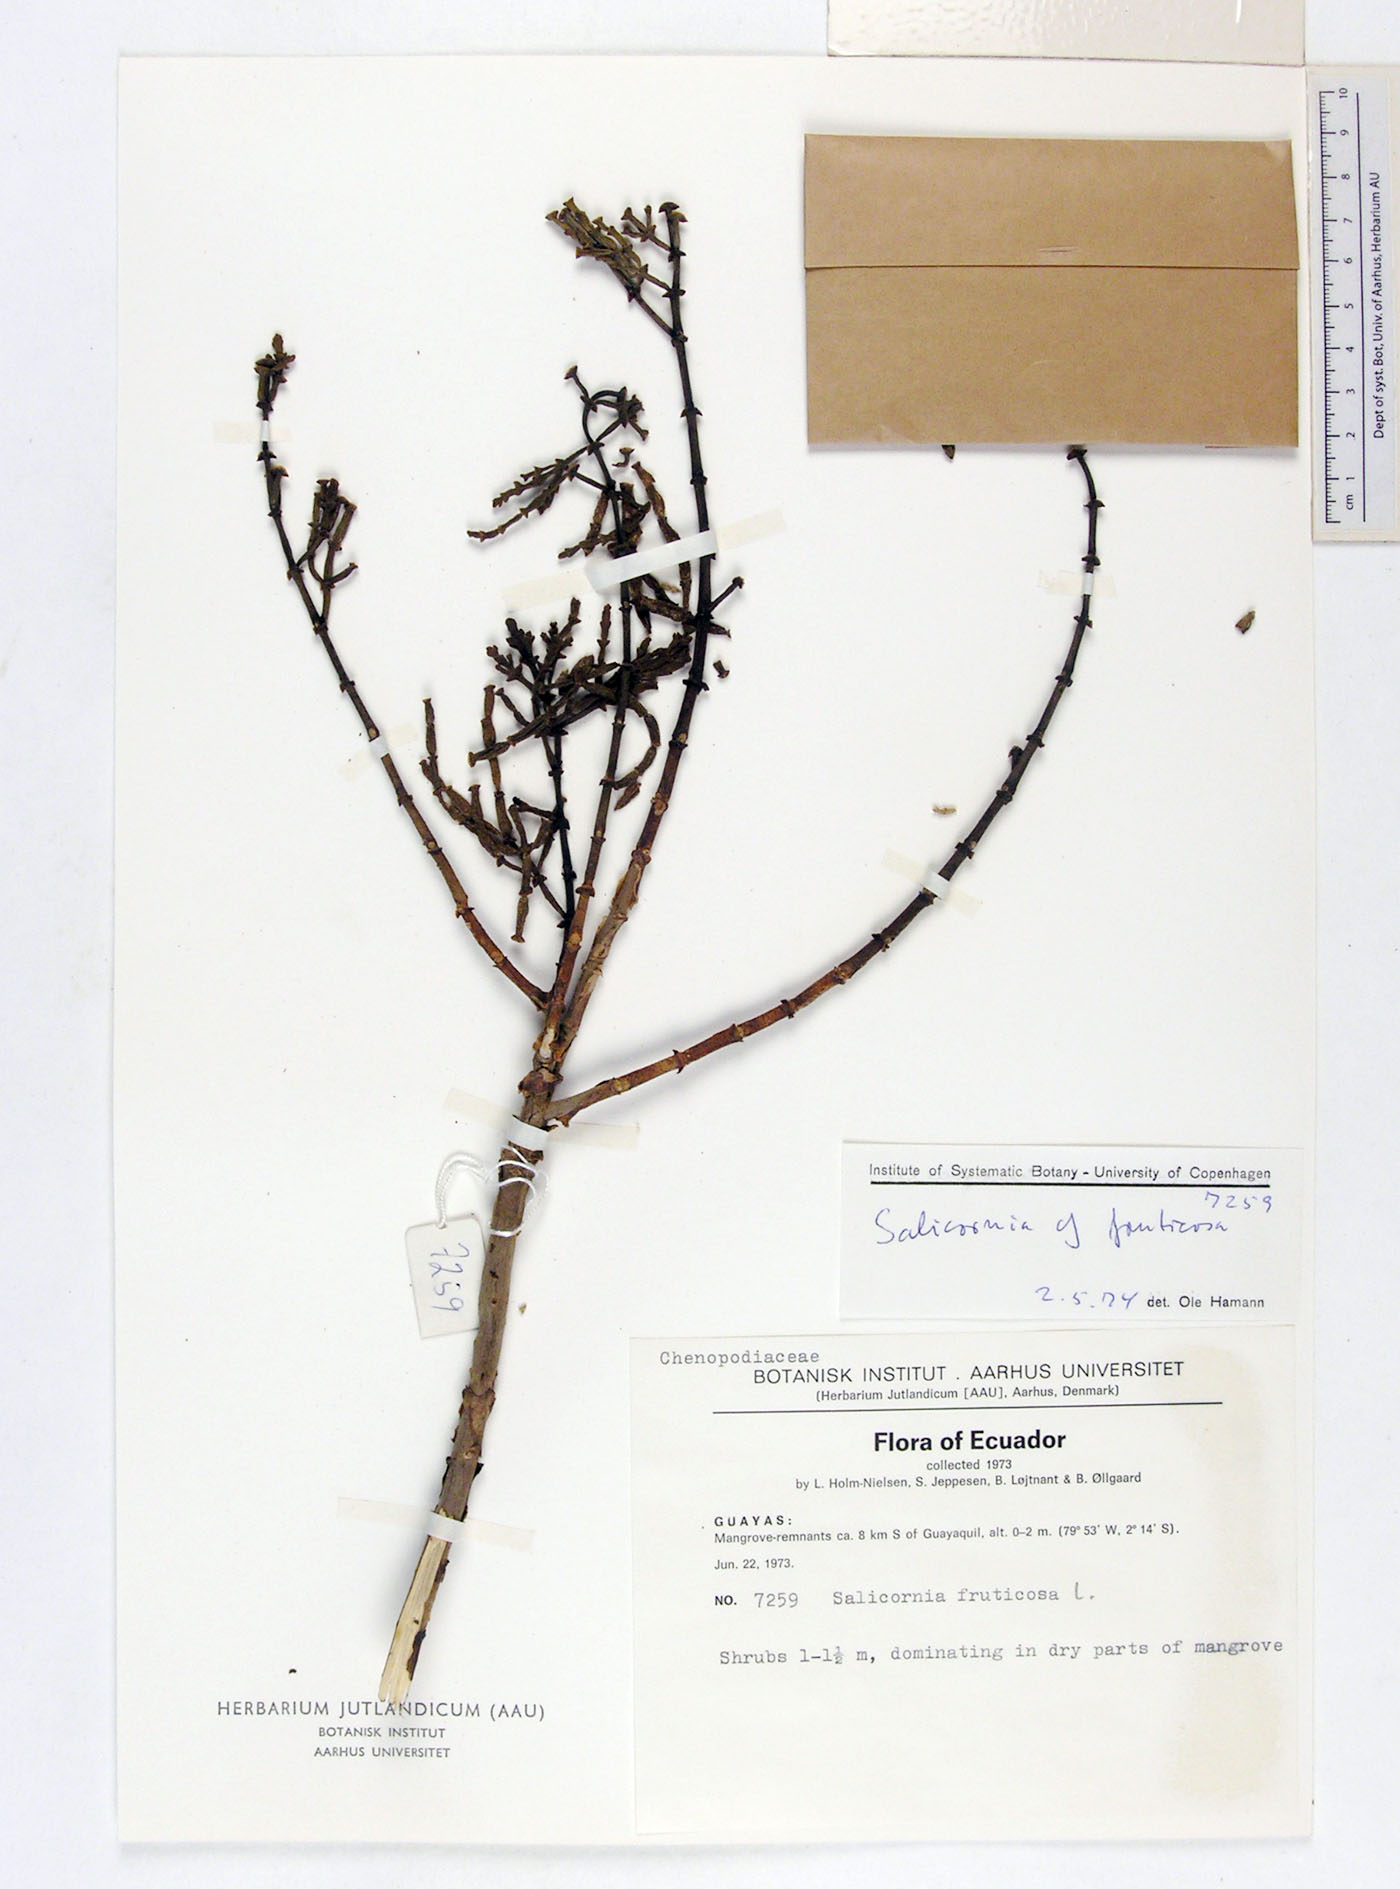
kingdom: Plantae
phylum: Tracheophyta
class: Magnoliopsida
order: Caryophyllales
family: Amaranthaceae
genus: Mangleticornia
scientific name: Mangleticornia ecuadorensis
